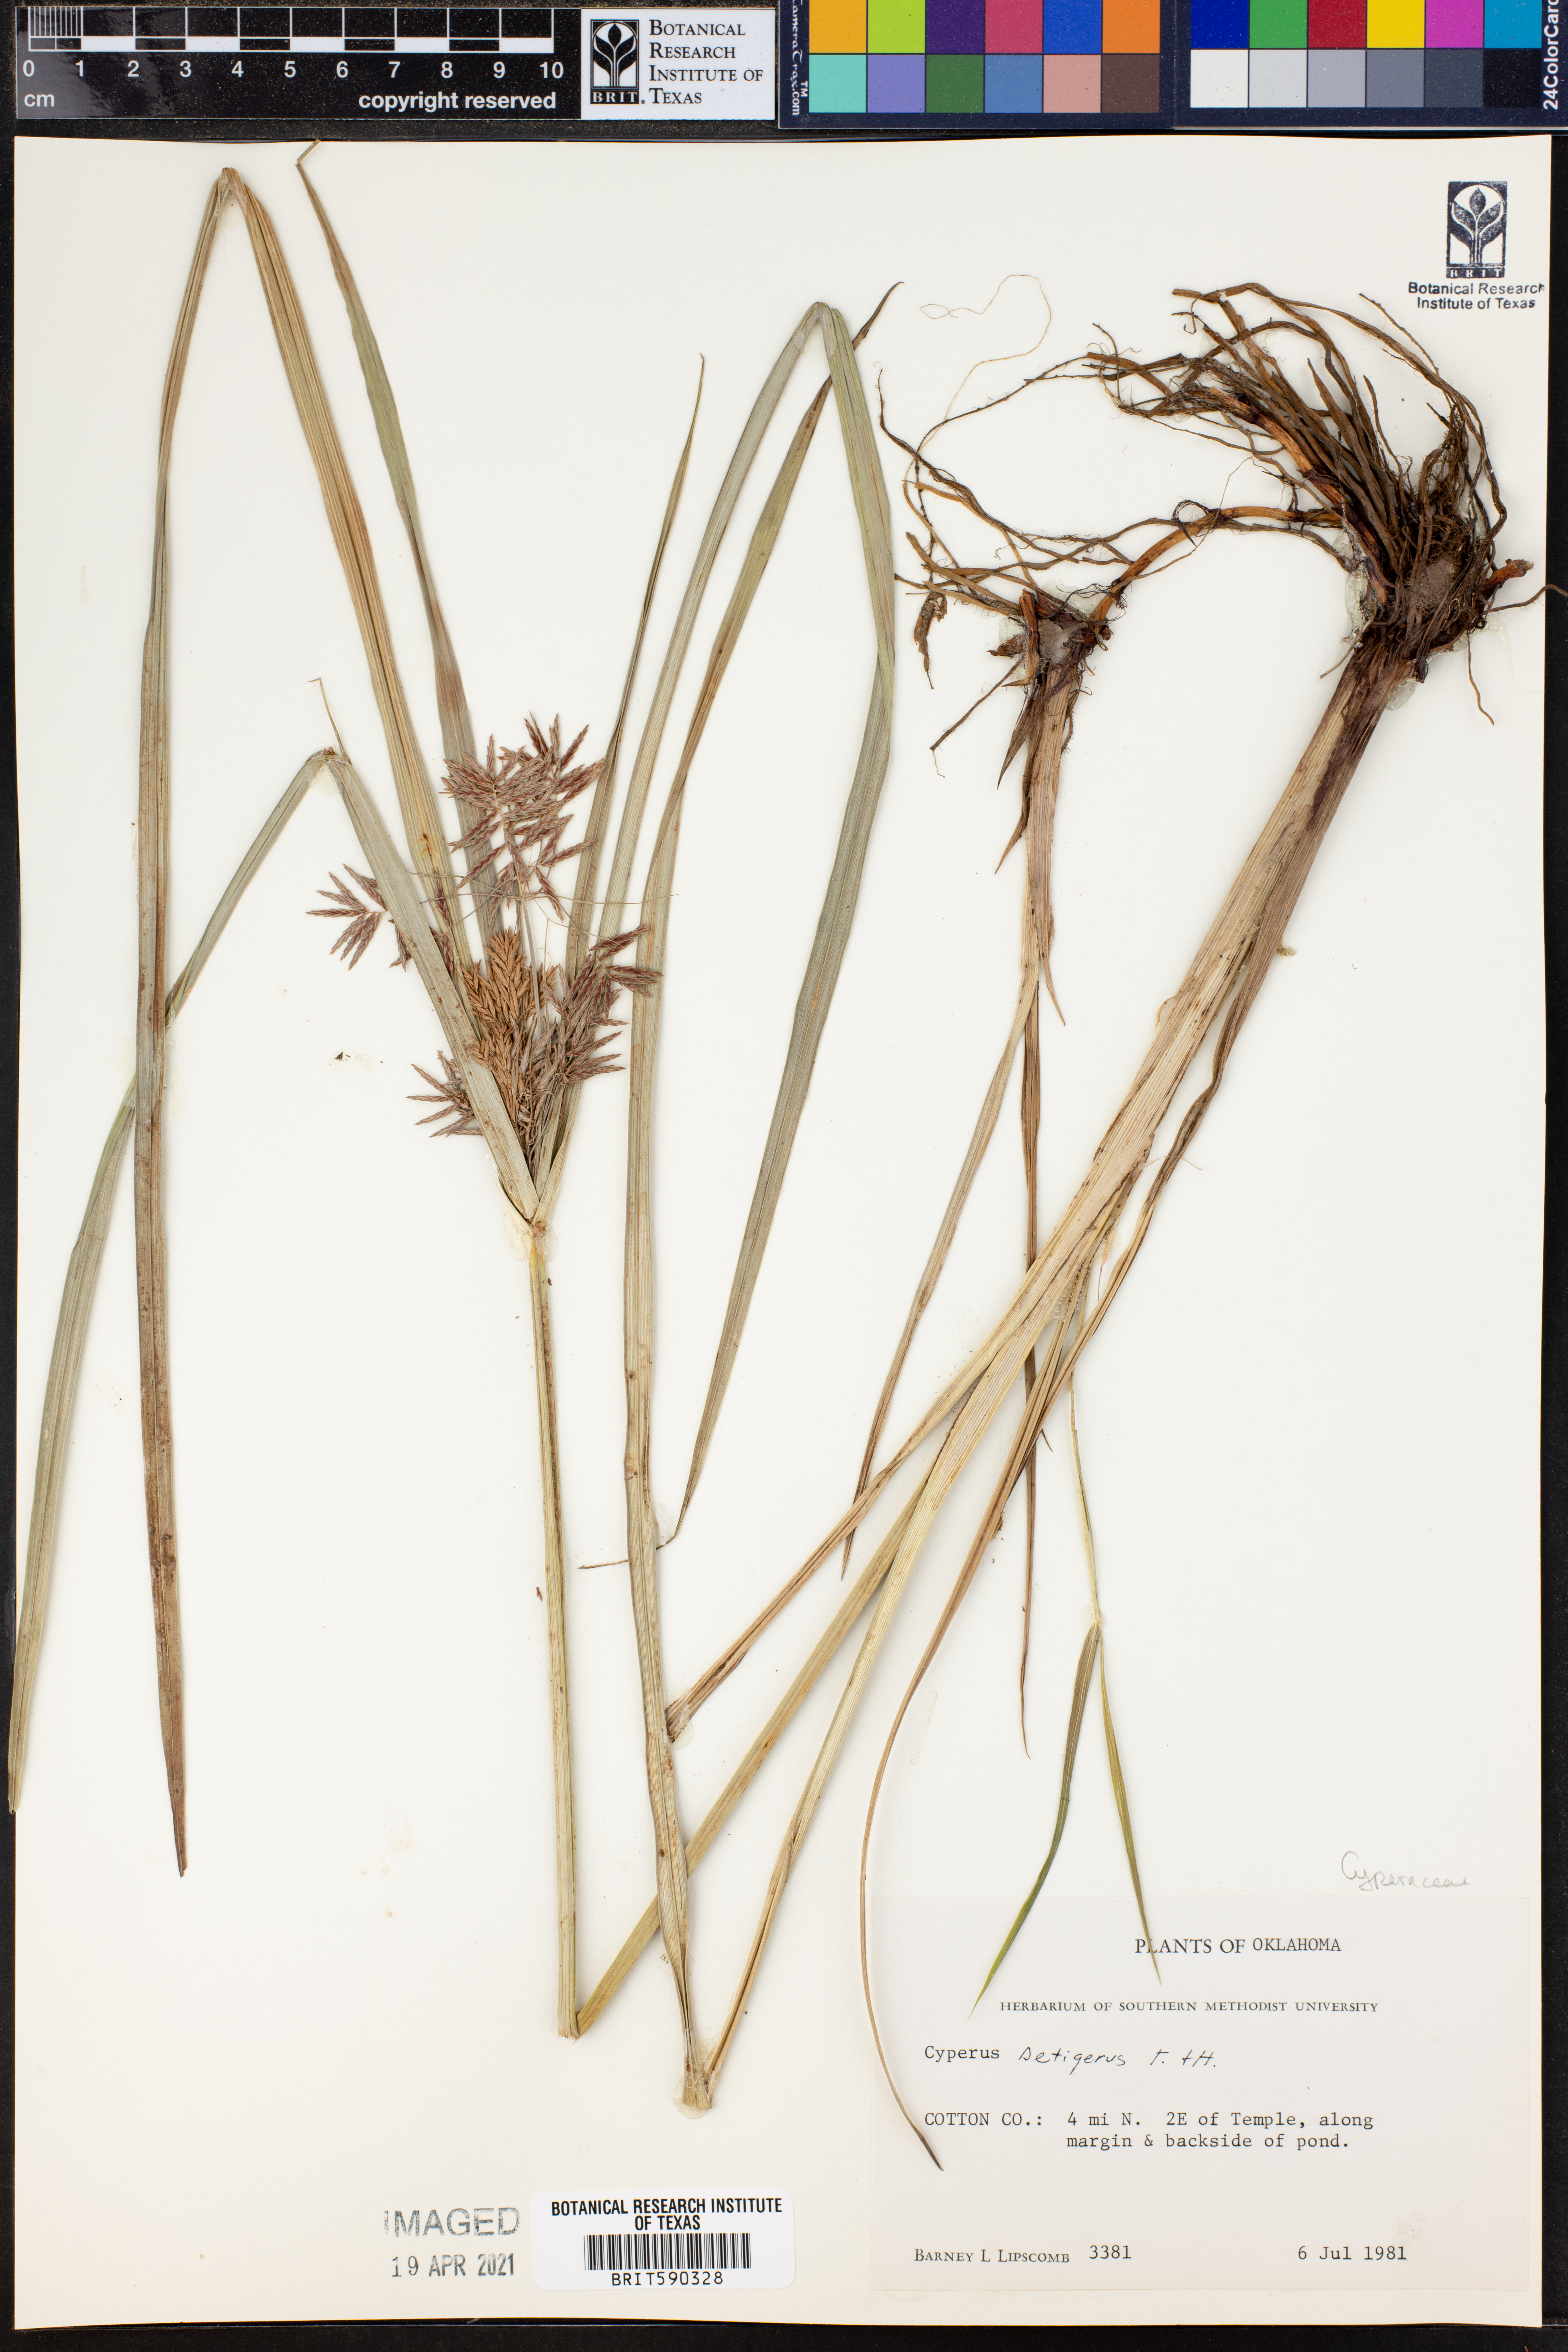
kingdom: Plantae
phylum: Tracheophyta
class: Liliopsida
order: Poales
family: Cyperaceae
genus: Cyperus
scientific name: Cyperus setigerus
